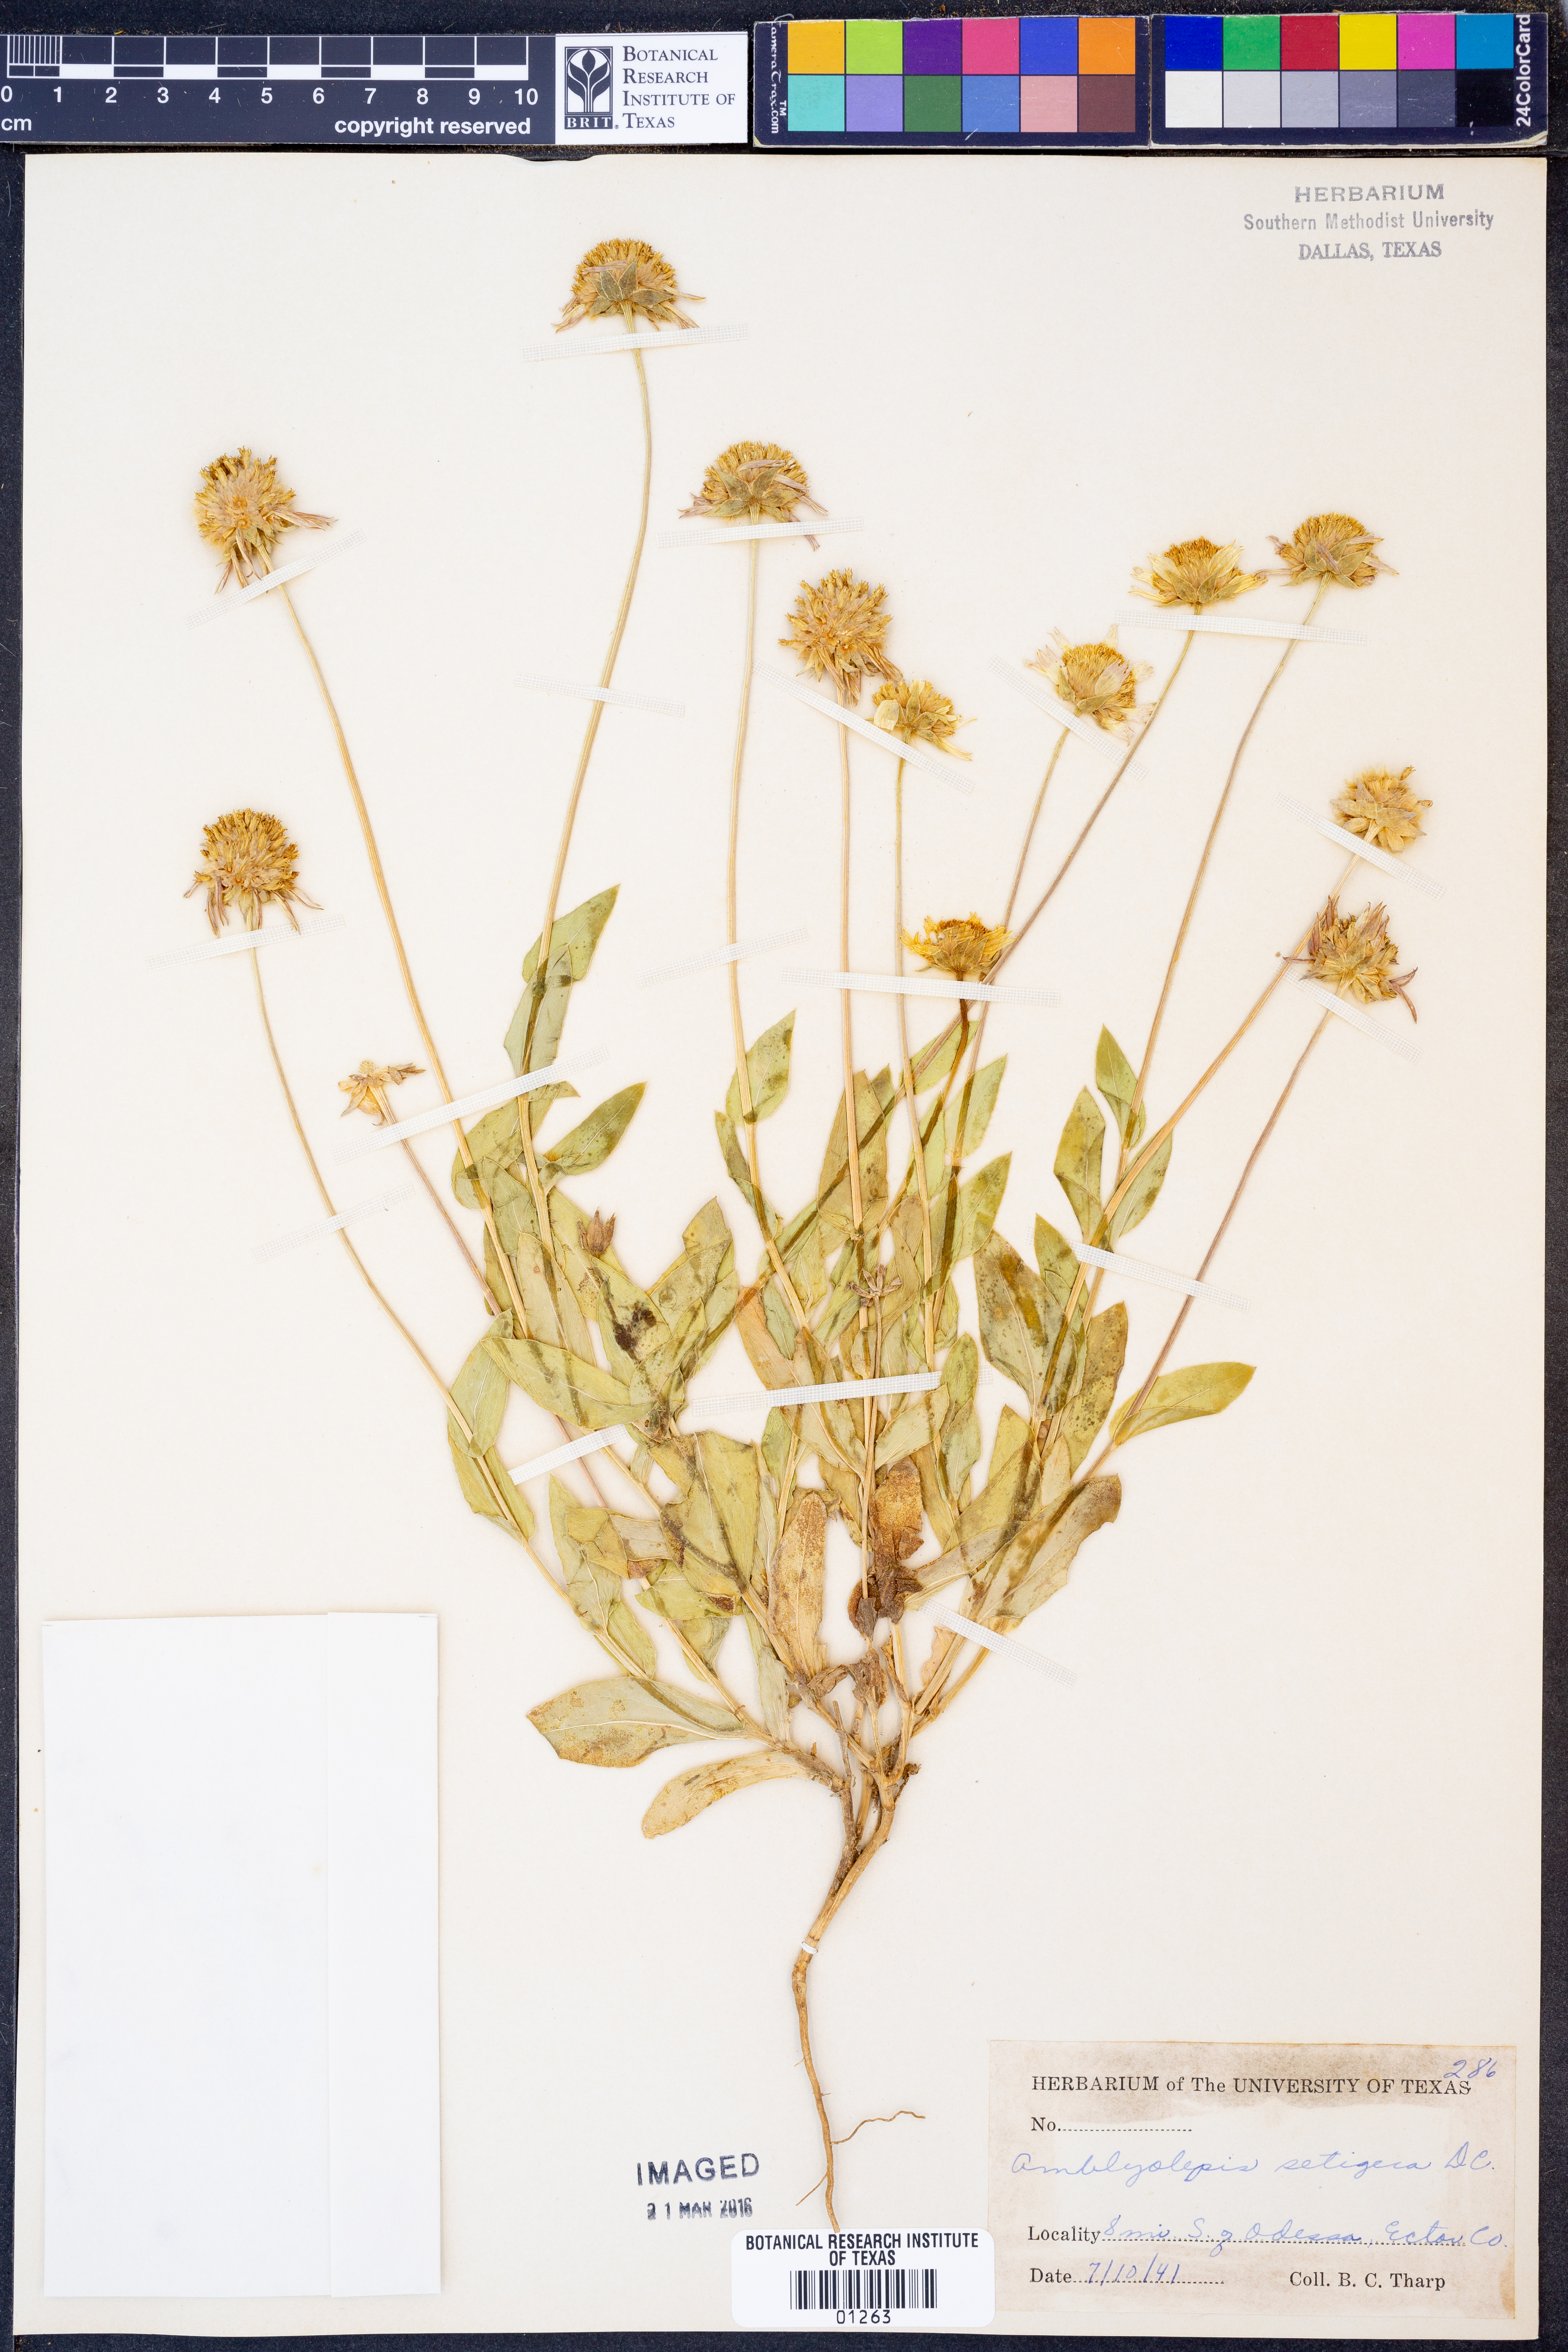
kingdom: Plantae
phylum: Tracheophyta
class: Magnoliopsida
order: Asterales
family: Asteraceae
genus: Amblyolepis
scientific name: Amblyolepis setigera
